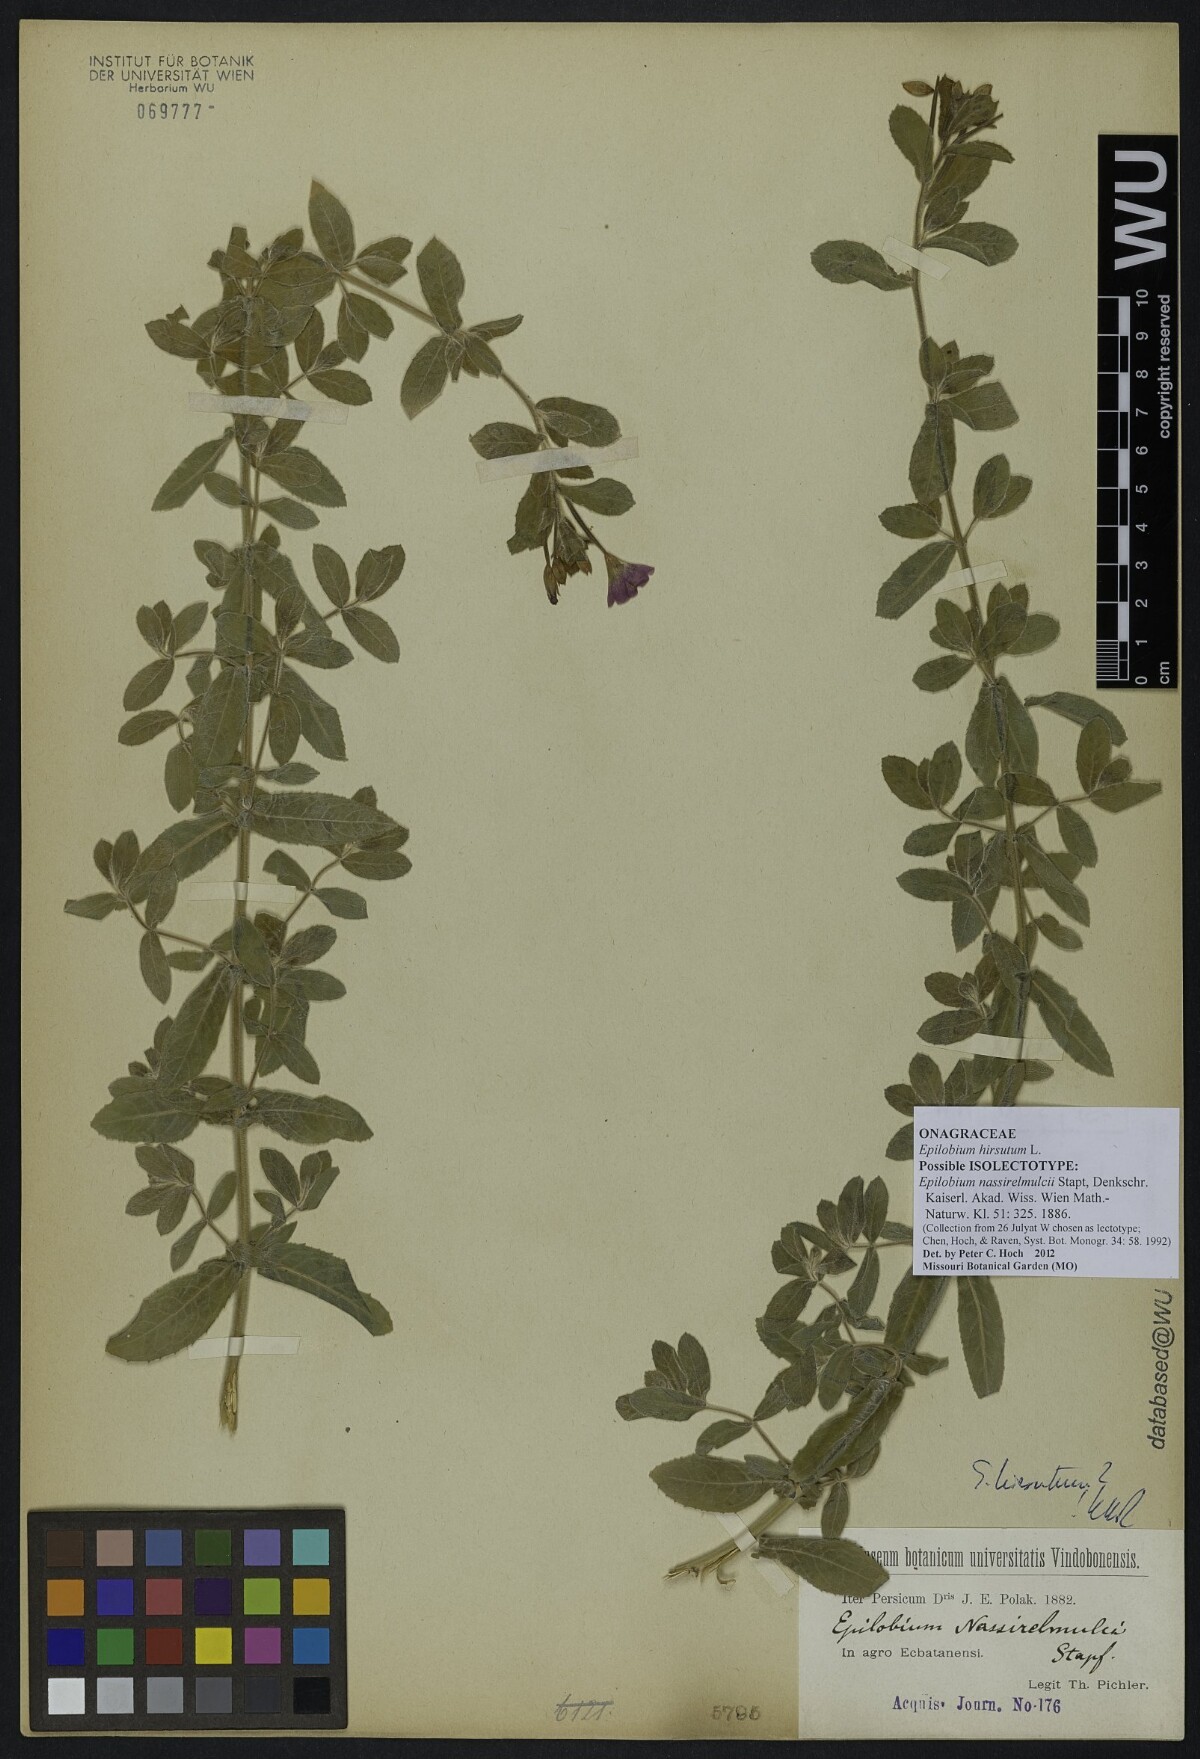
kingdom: Plantae
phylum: Tracheophyta
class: Magnoliopsida
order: Myrtales
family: Onagraceae
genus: Epilobium
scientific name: Epilobium nassirelmulcii
